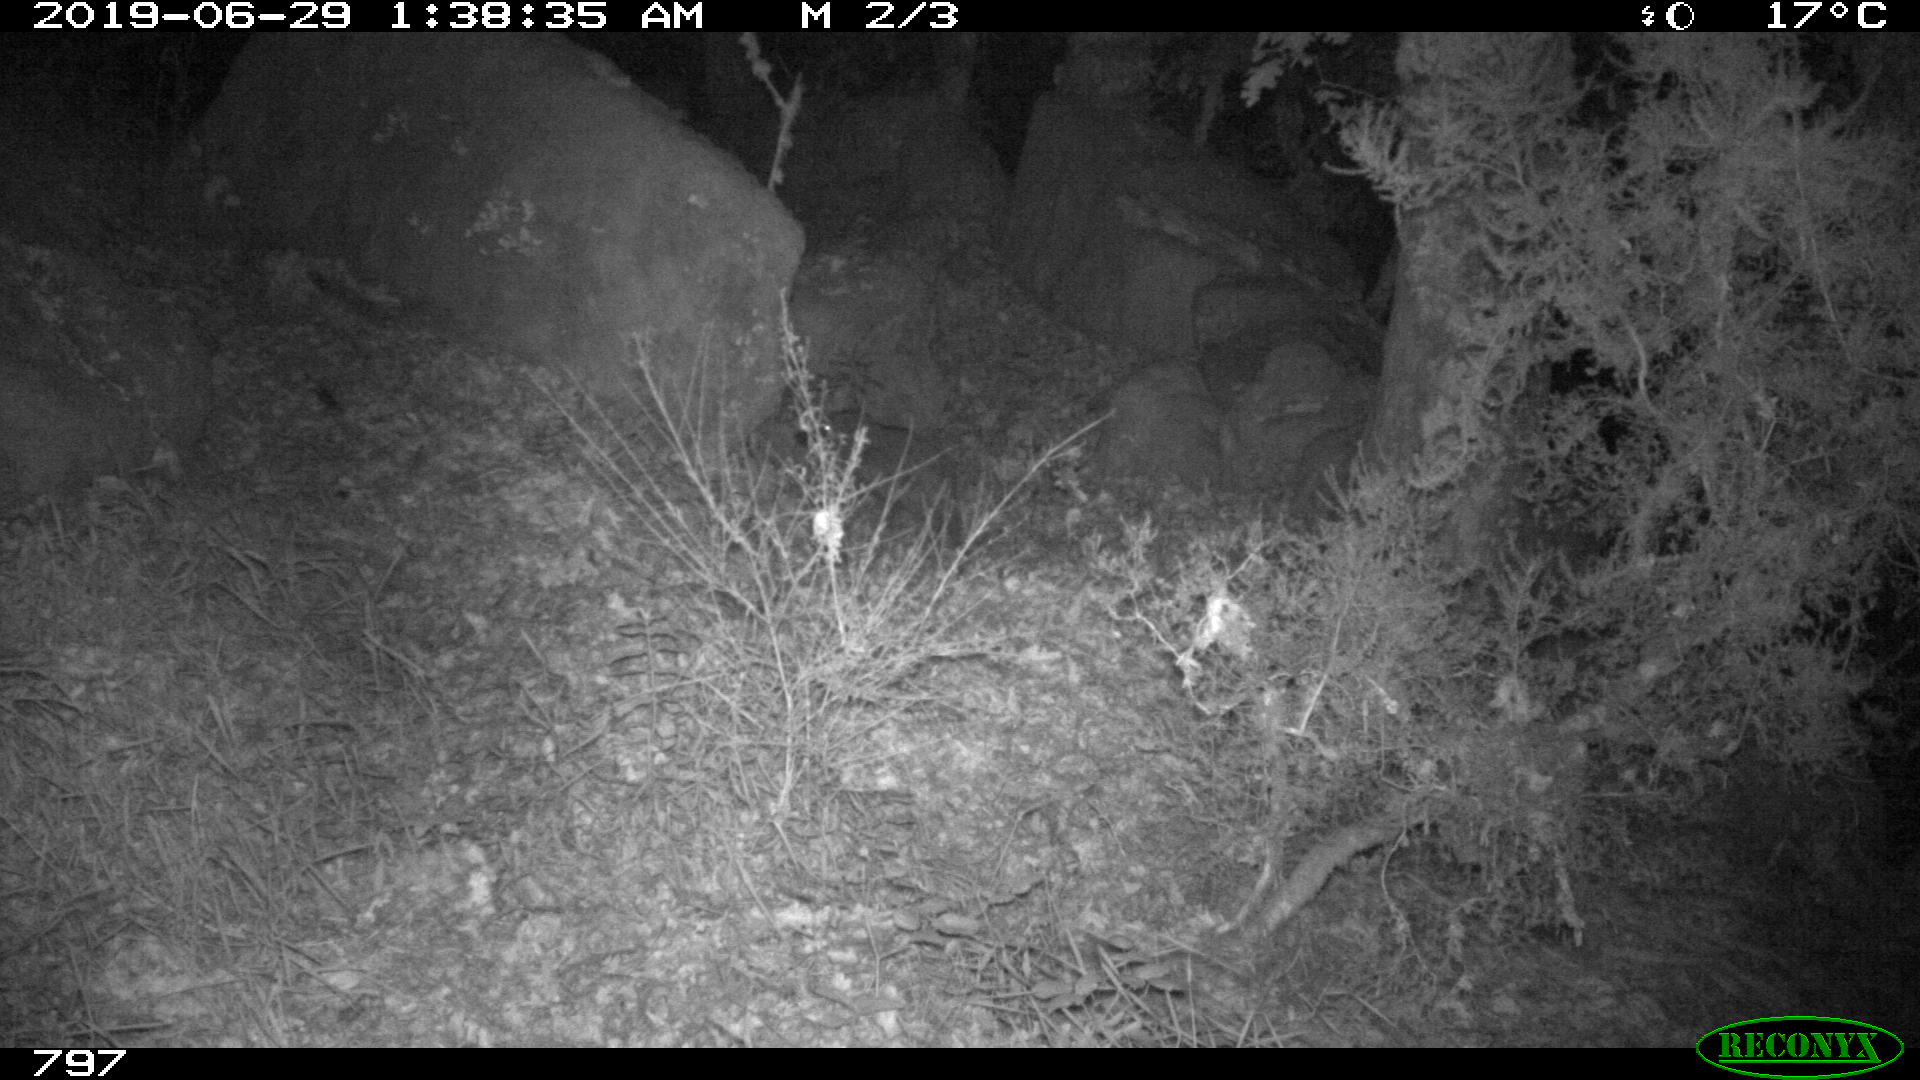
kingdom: Animalia
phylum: Chordata
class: Mammalia
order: Artiodactyla
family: Suidae
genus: Sus
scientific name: Sus scrofa
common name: Wild boar
